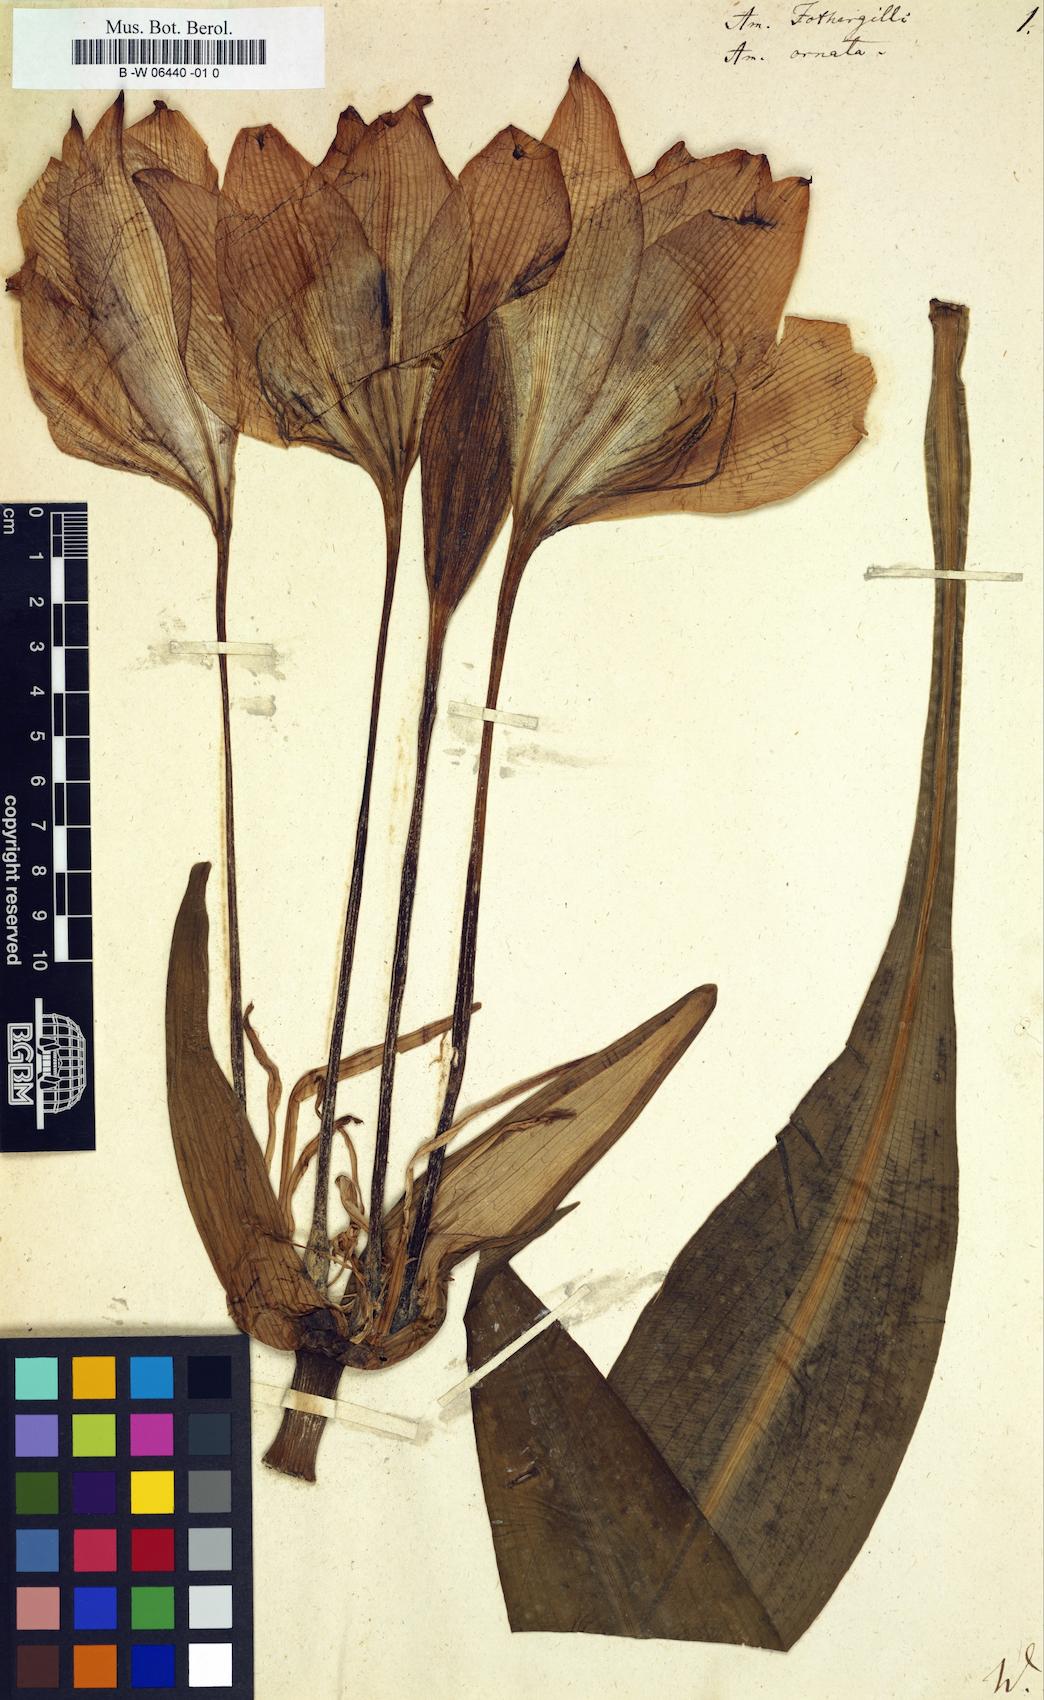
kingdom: Plantae
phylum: Tracheophyta
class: Liliopsida
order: Asparagales
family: Amaryllidaceae
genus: Nerine
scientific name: Nerine sarniensis
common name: Guernsey-lily
